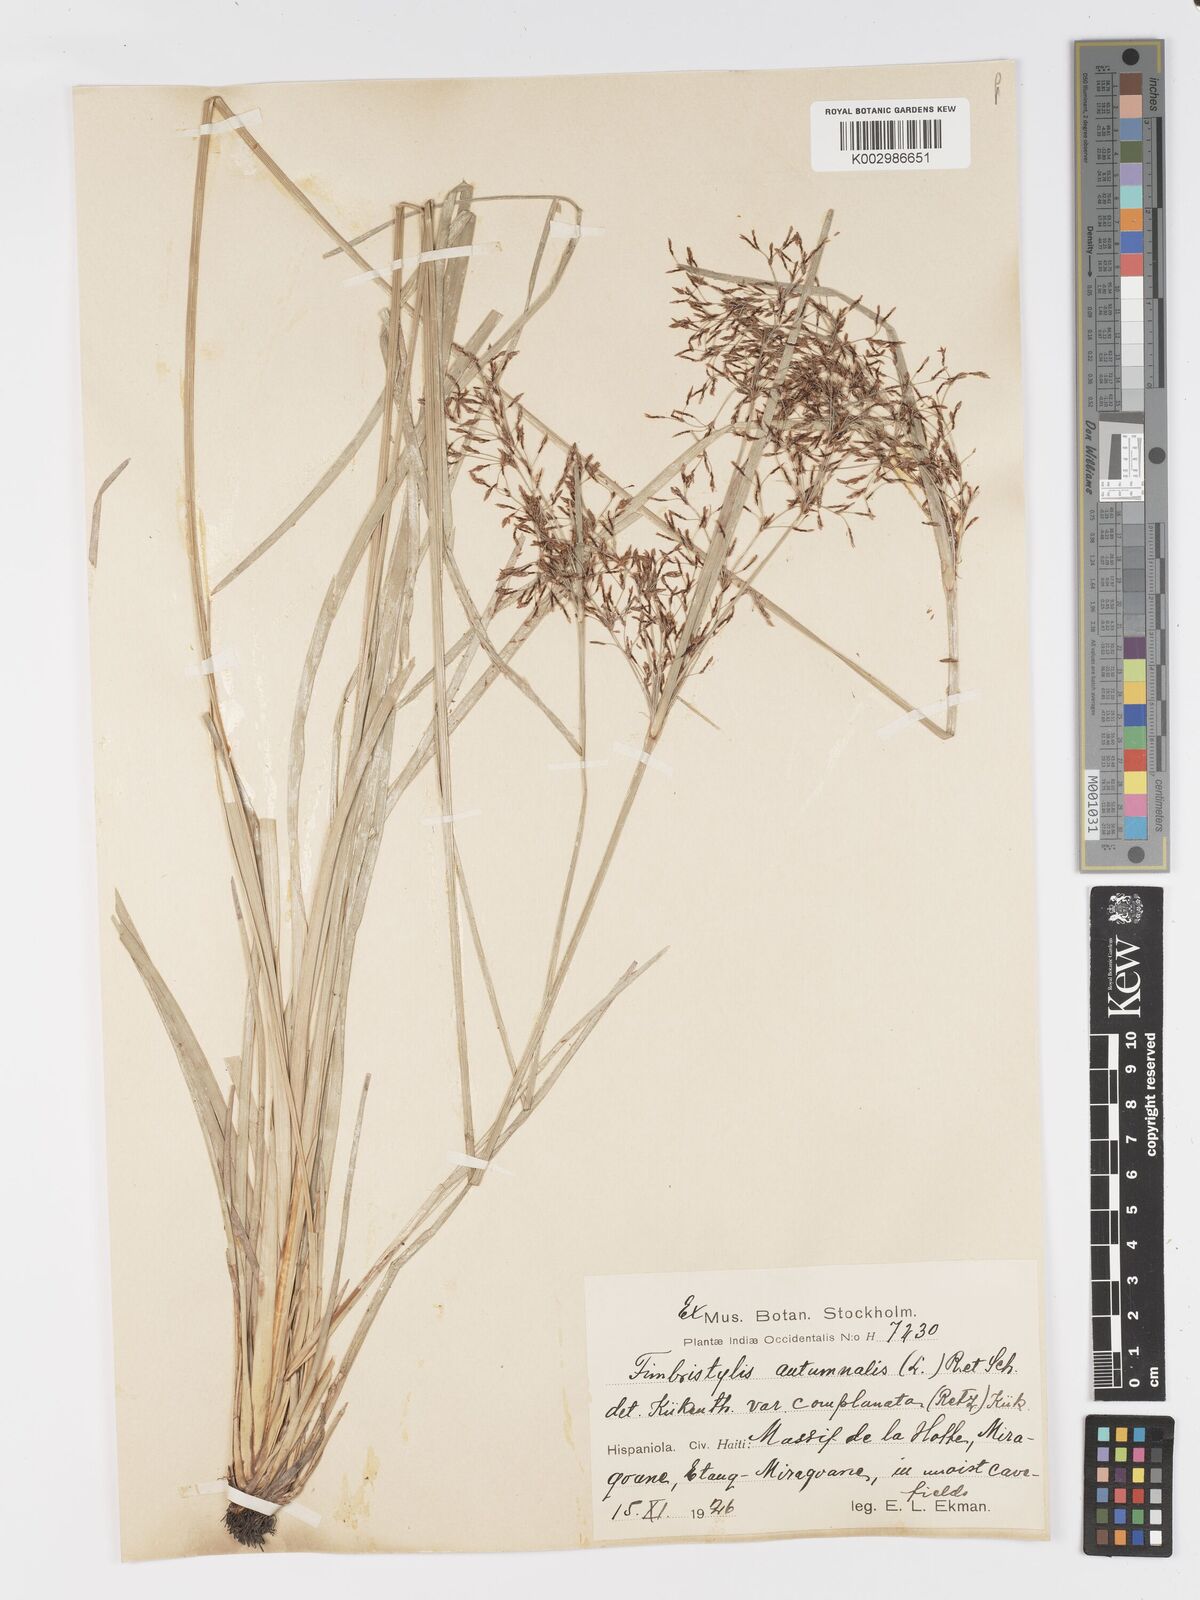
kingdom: Plantae
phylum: Tracheophyta
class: Liliopsida
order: Poales
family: Cyperaceae
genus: Fimbristylis
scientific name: Fimbristylis autumnalis
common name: Slender fimbristylis
